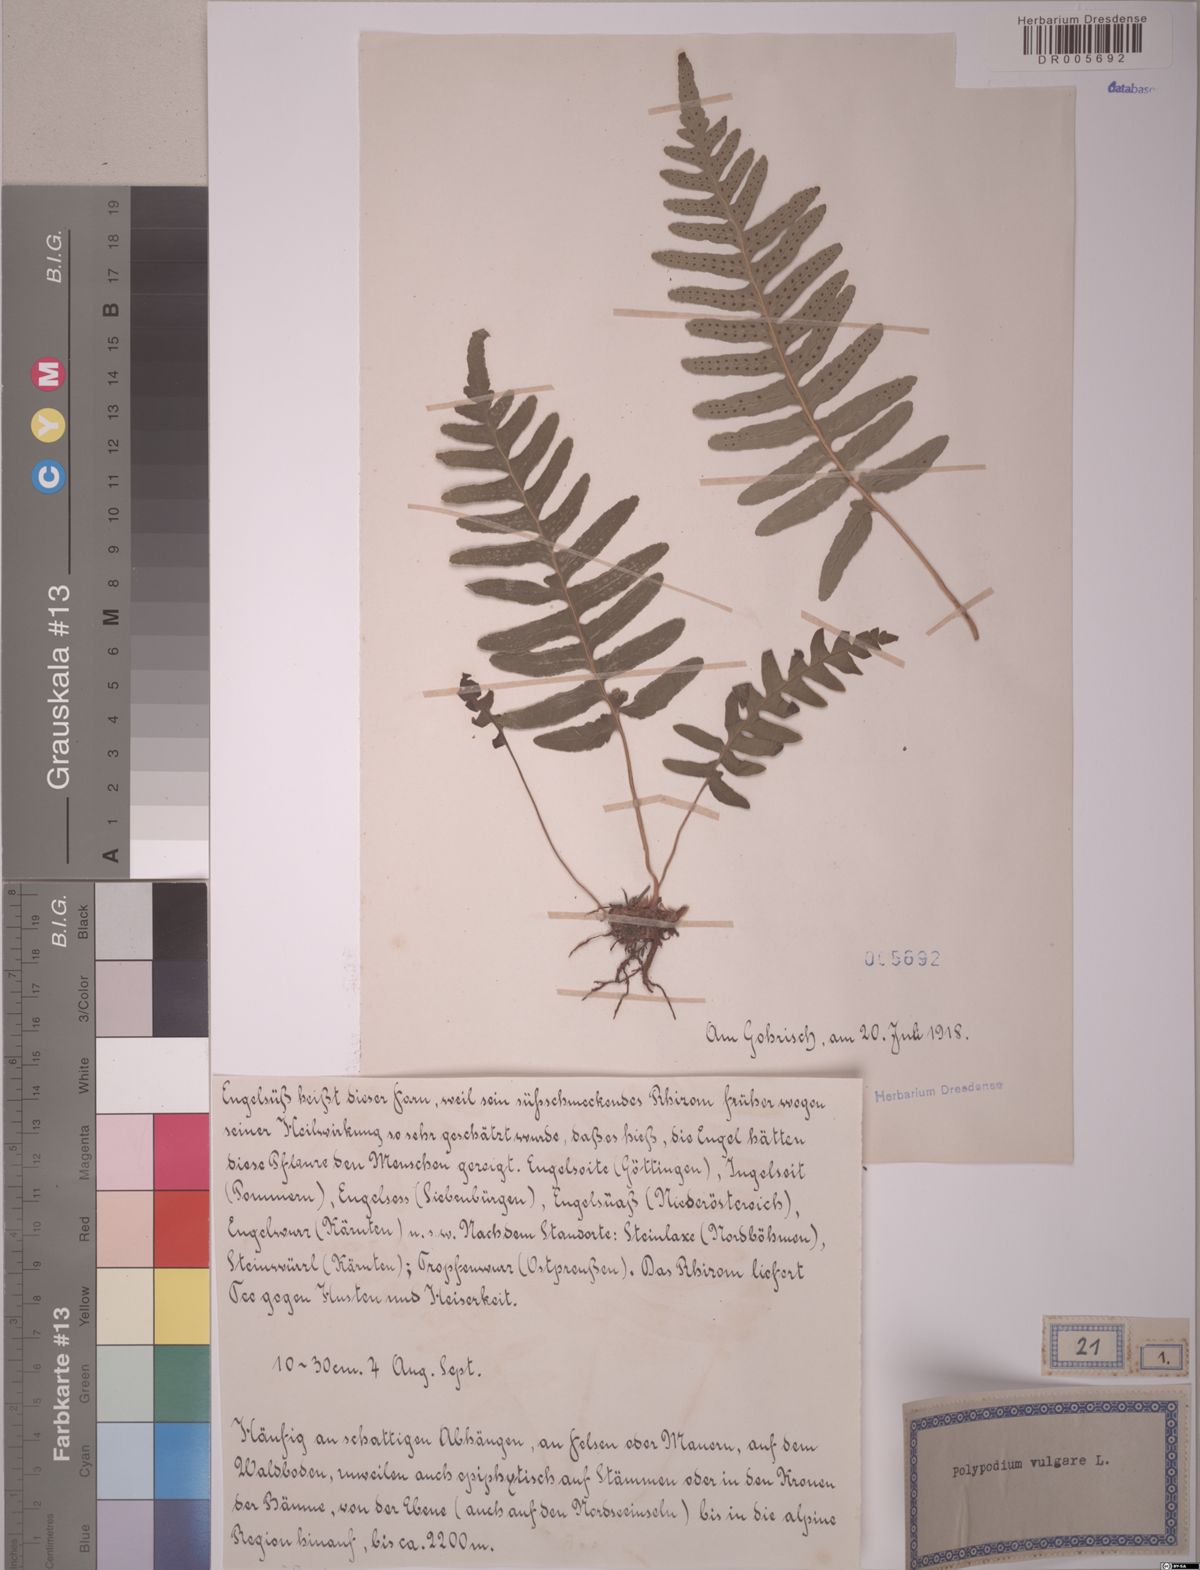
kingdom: Plantae
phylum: Tracheophyta
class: Polypodiopsida
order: Polypodiales
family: Polypodiaceae
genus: Polypodium
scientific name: Polypodium vulgare
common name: Common polypody
